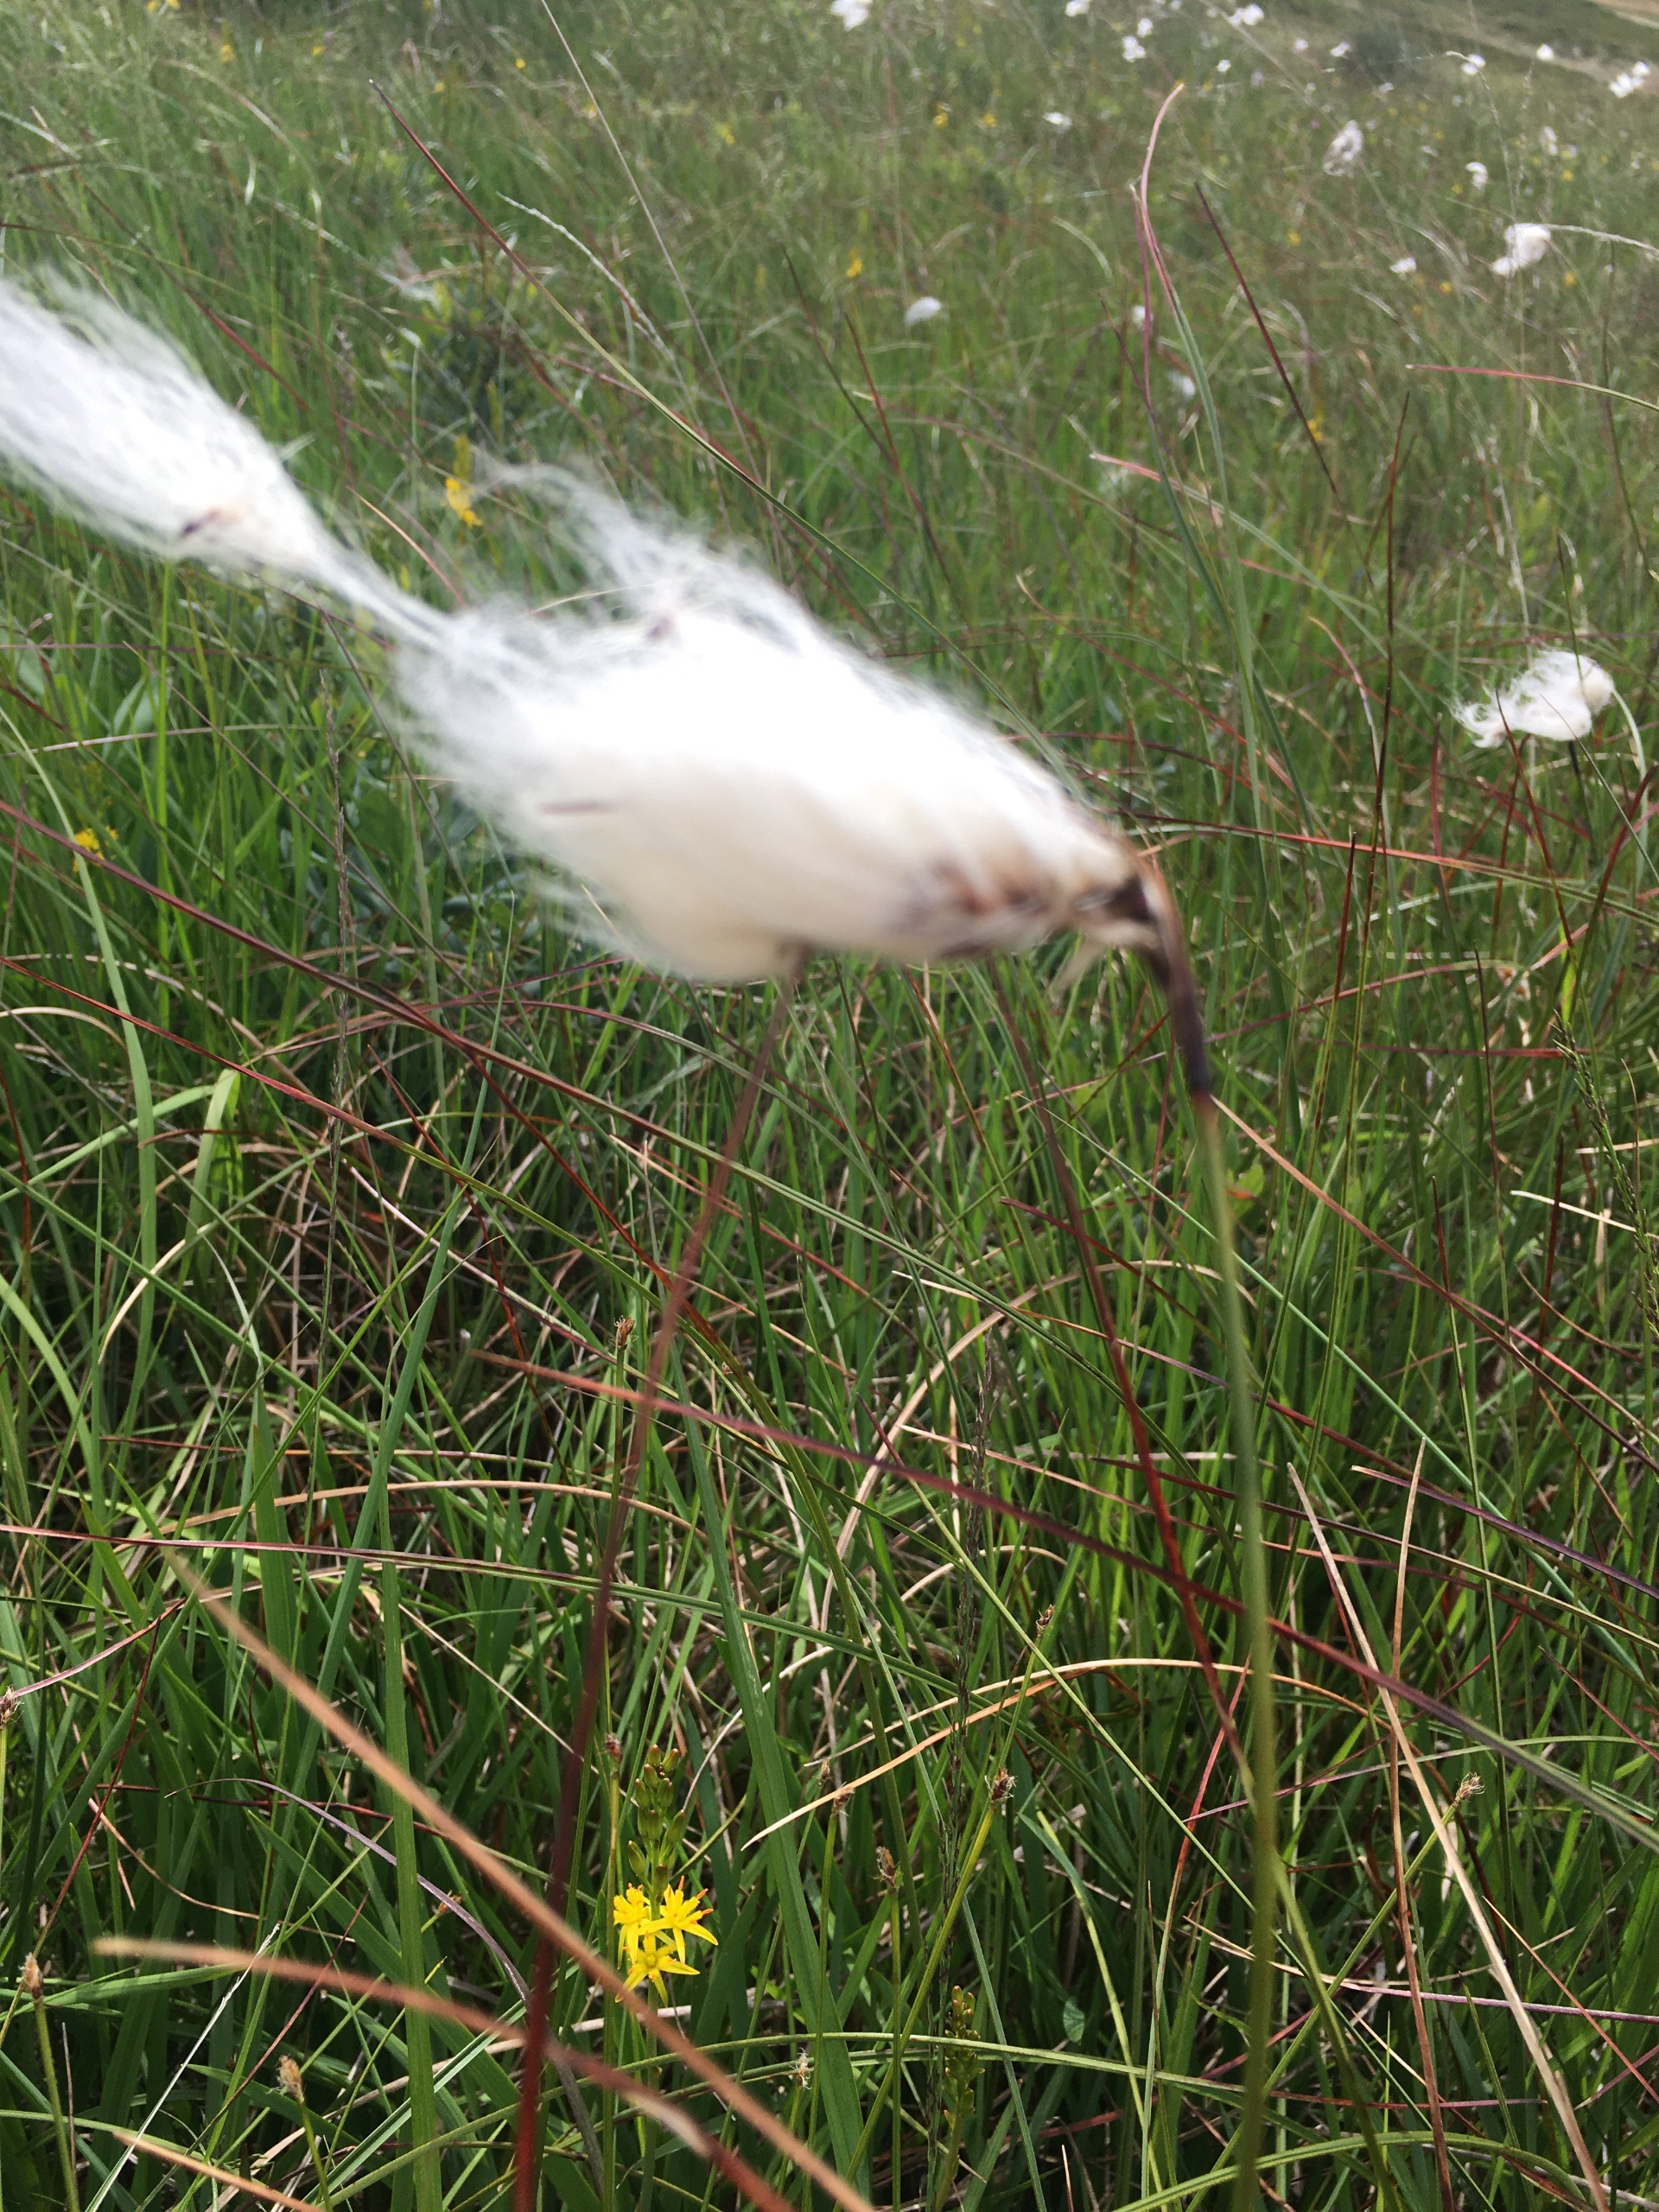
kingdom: Plantae
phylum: Tracheophyta
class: Liliopsida
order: Poales
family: Cyperaceae
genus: Eriophorum
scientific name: Eriophorum angustifolium
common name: Smalbladet kæruld
